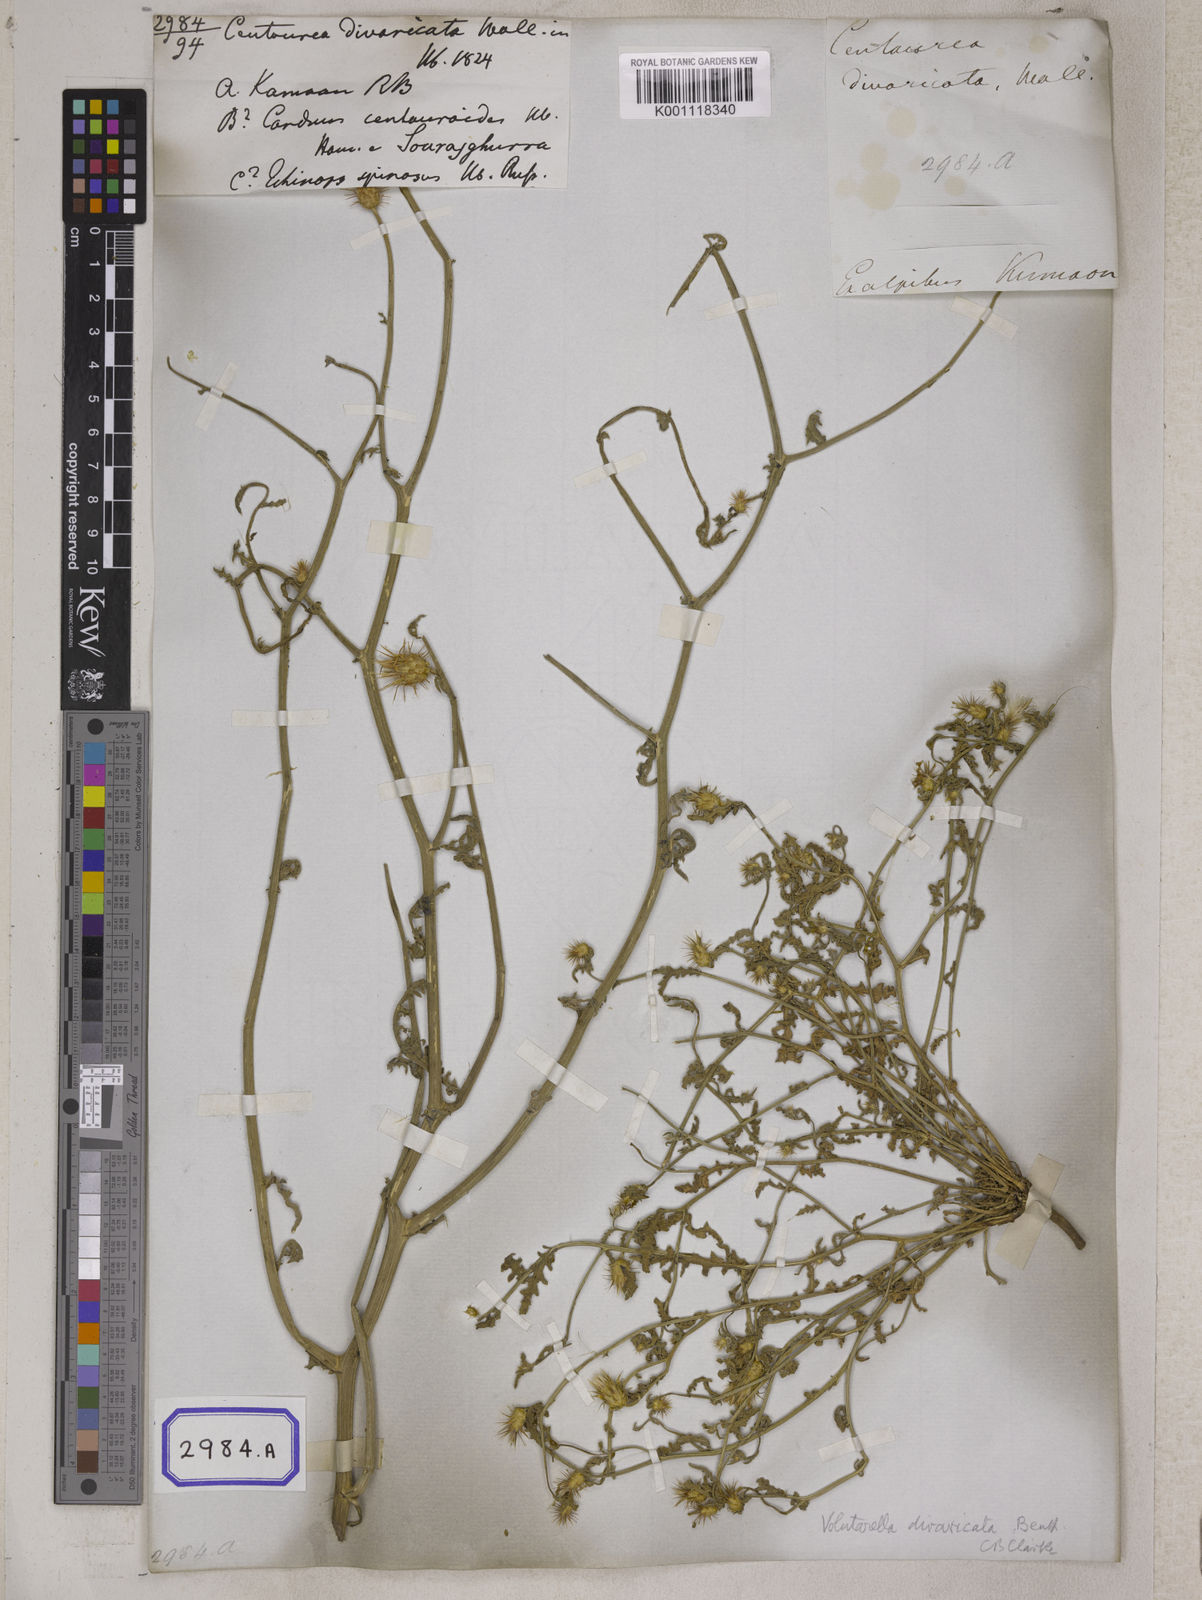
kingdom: Plantae
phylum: Tracheophyta
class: Magnoliopsida
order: Asterales
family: Asteraceae
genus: Centaurea
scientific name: Centaurea
